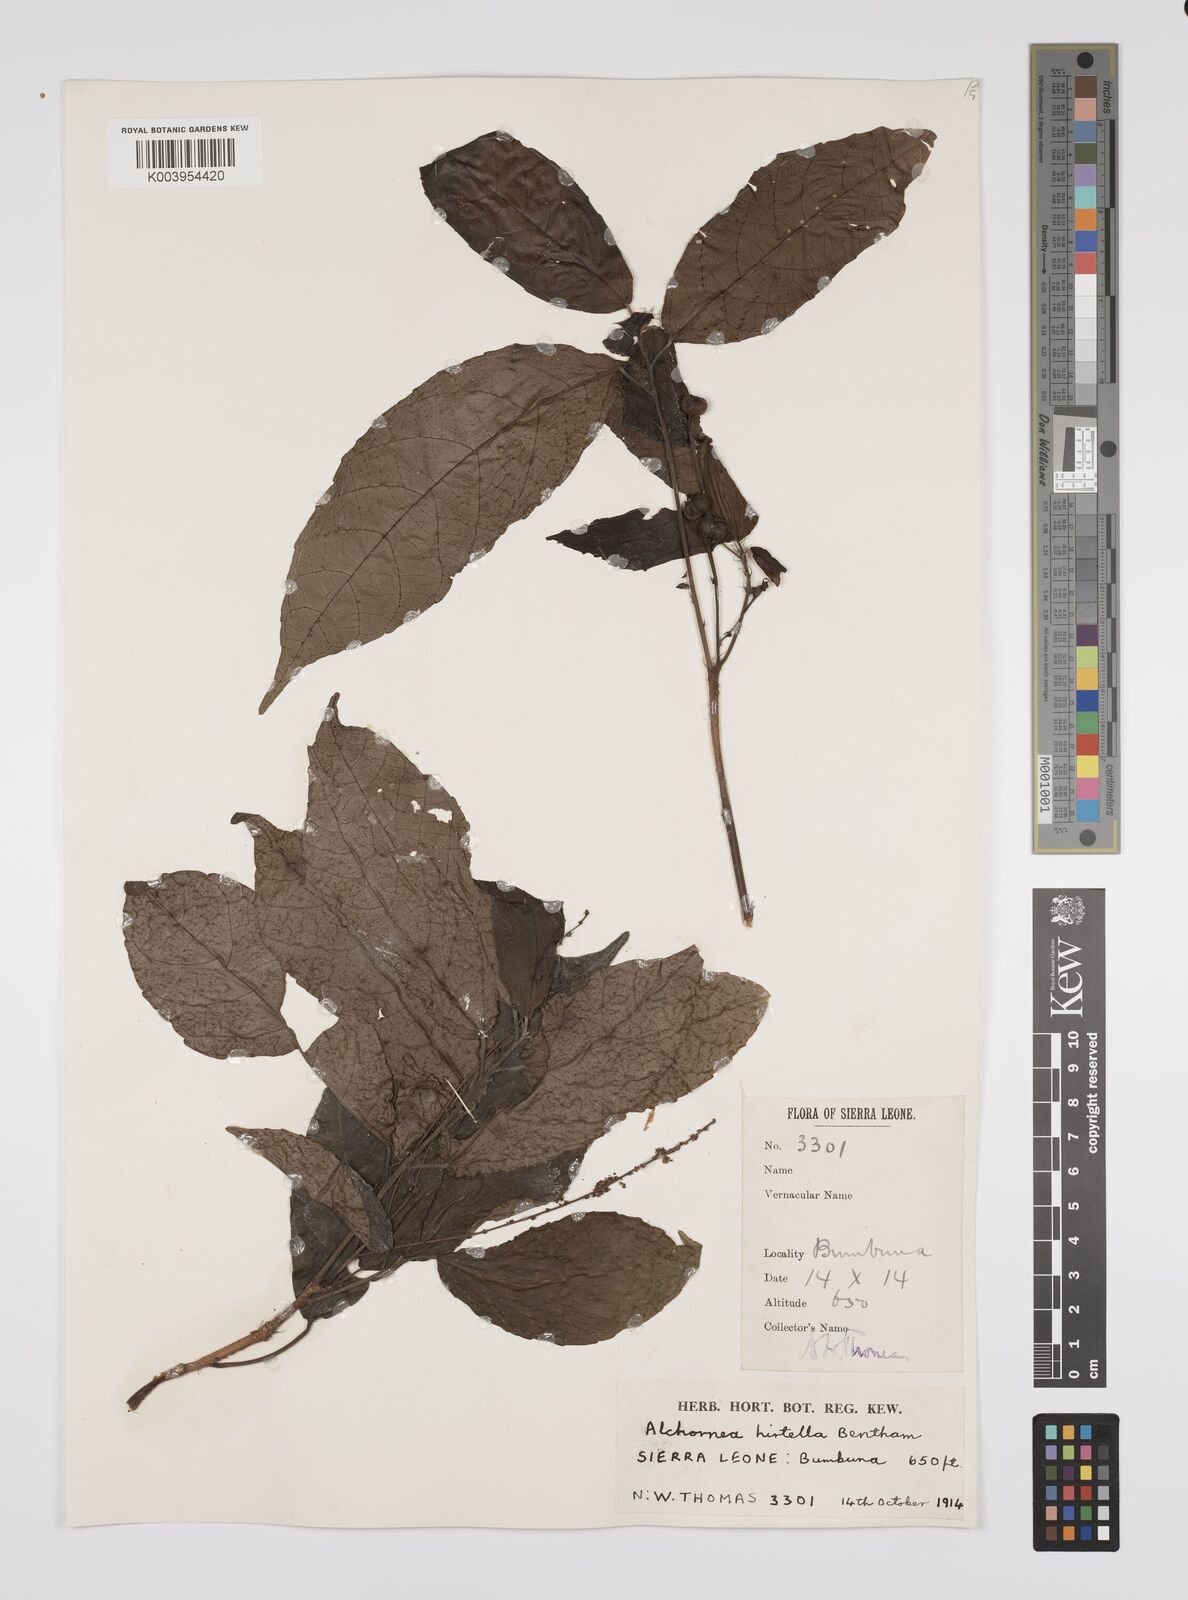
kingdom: Plantae
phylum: Tracheophyta
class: Magnoliopsida
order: Malpighiales
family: Euphorbiaceae
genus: Alchornea
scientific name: Alchornea hirtella
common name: Forest bead-string
